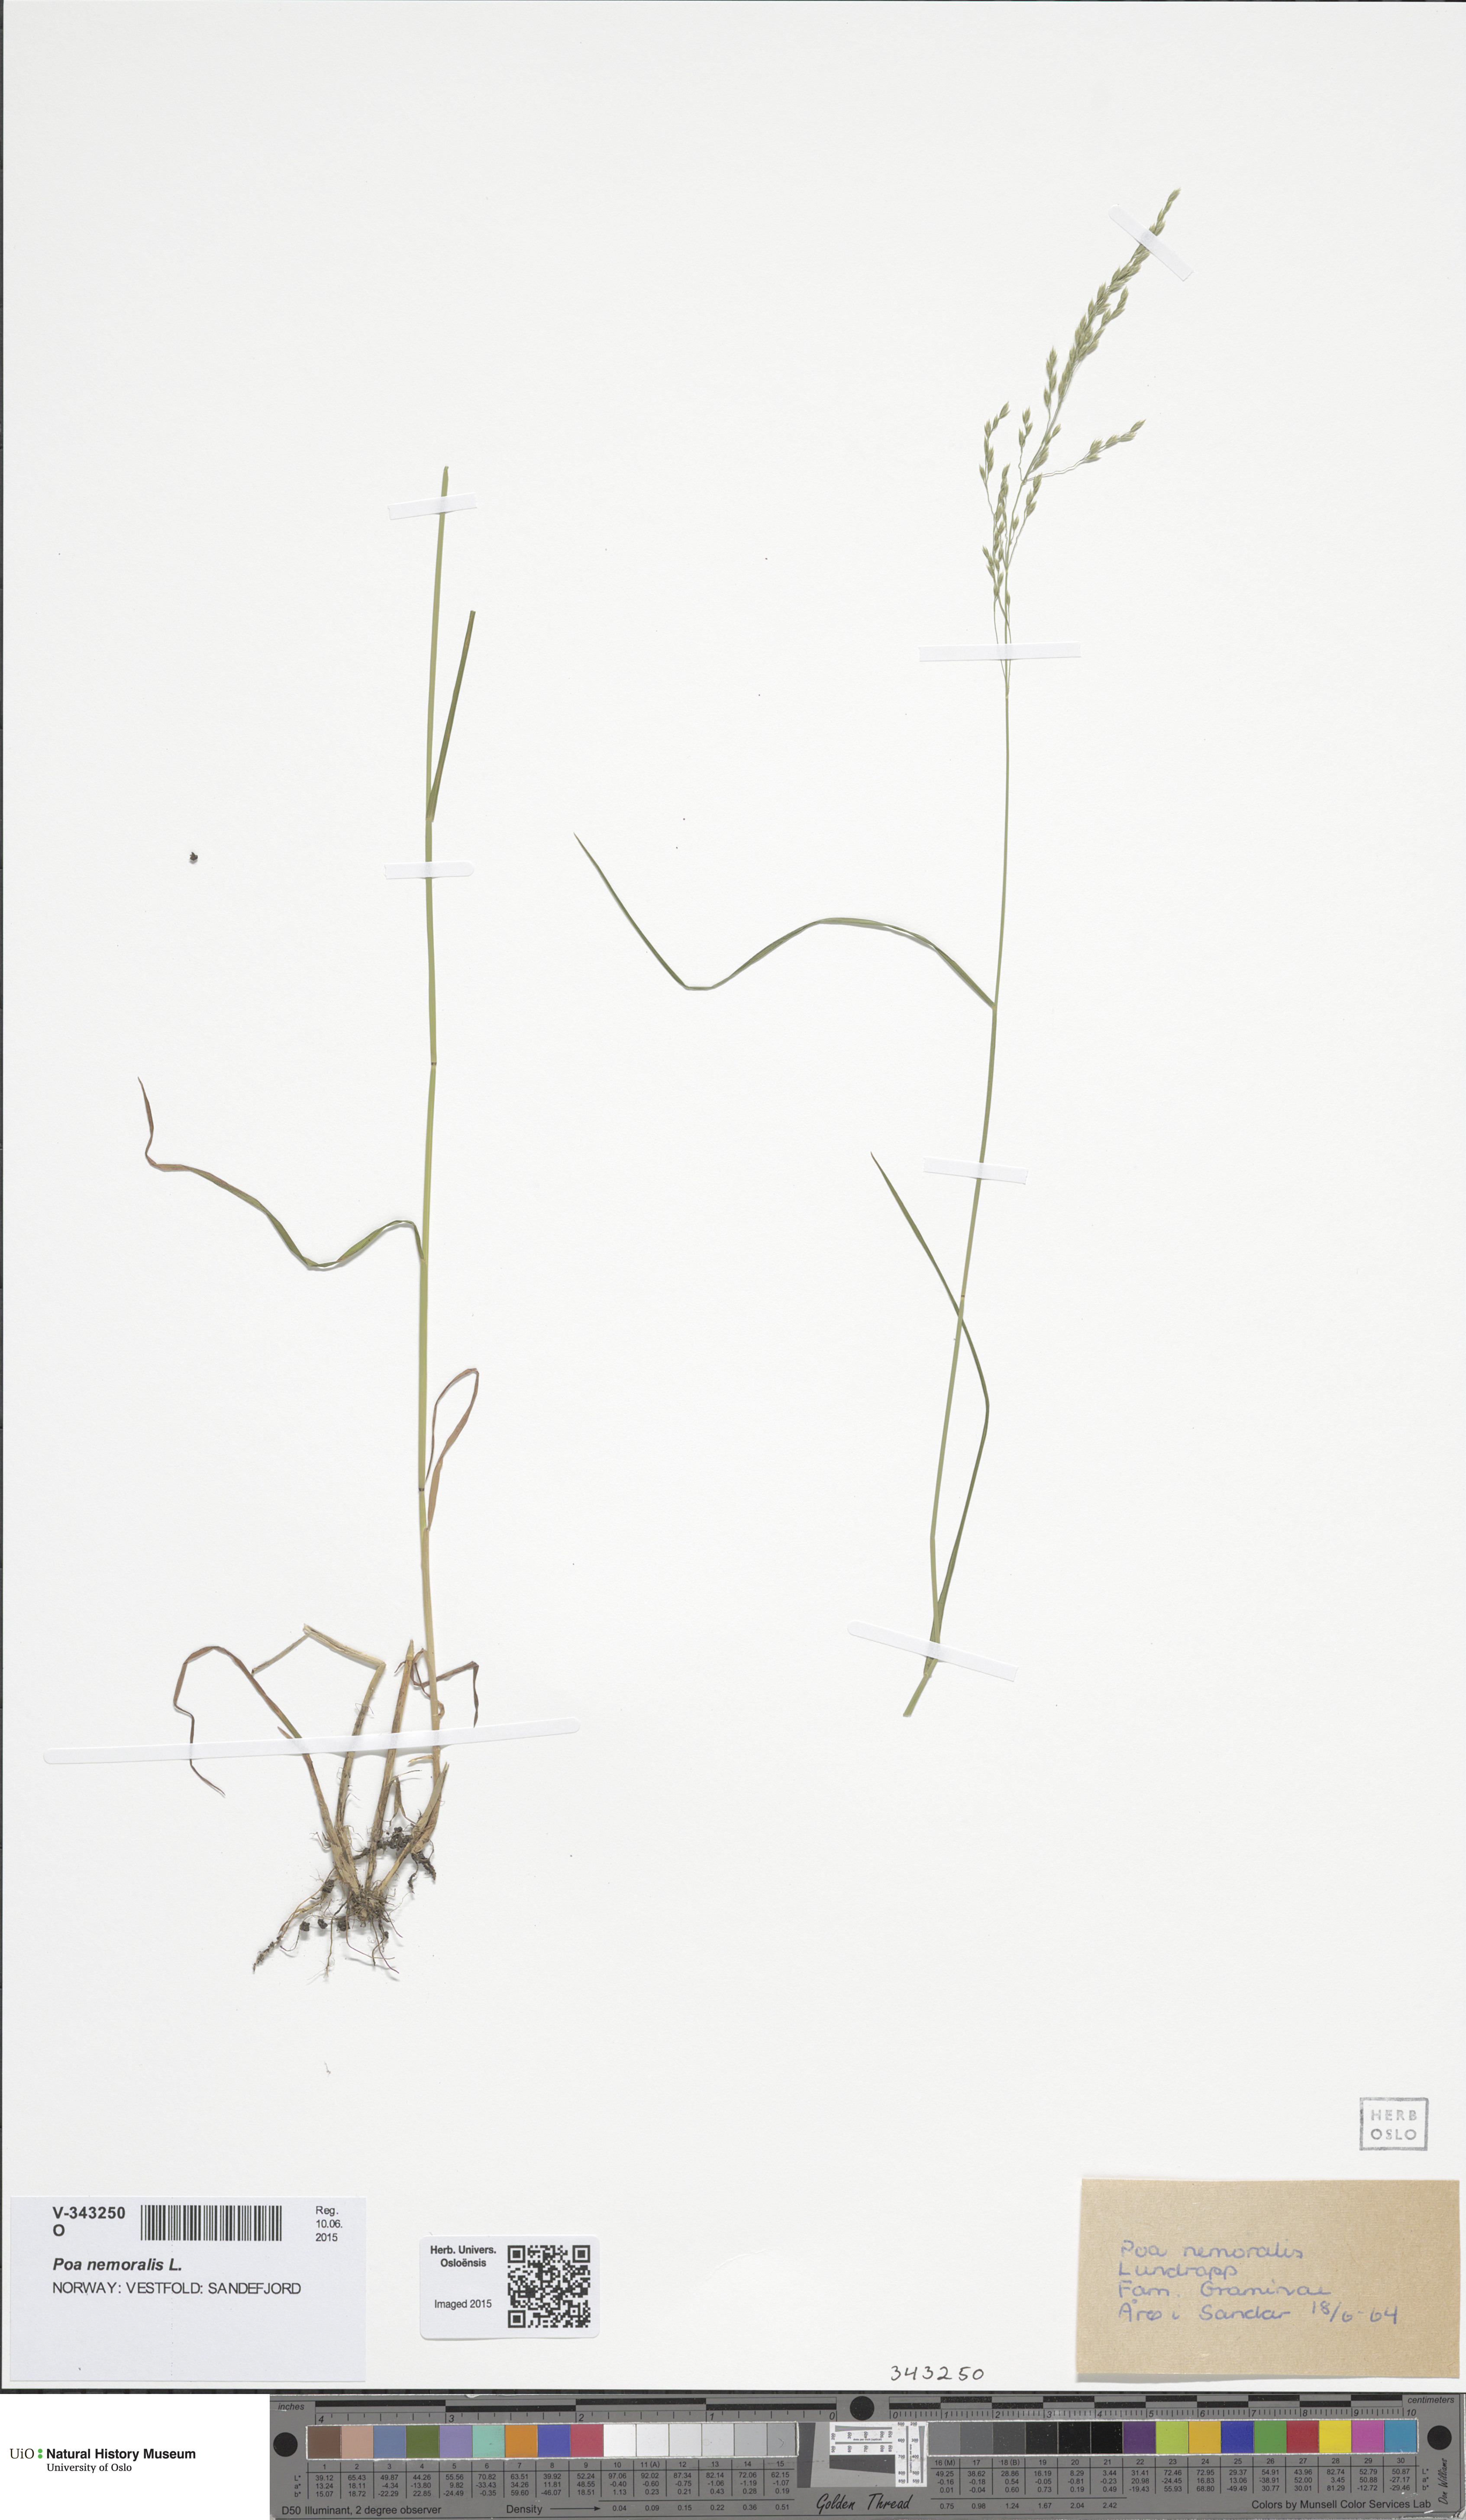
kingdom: Plantae
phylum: Tracheophyta
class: Liliopsida
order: Poales
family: Poaceae
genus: Poa
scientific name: Poa nemoralis
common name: Wood bluegrass
